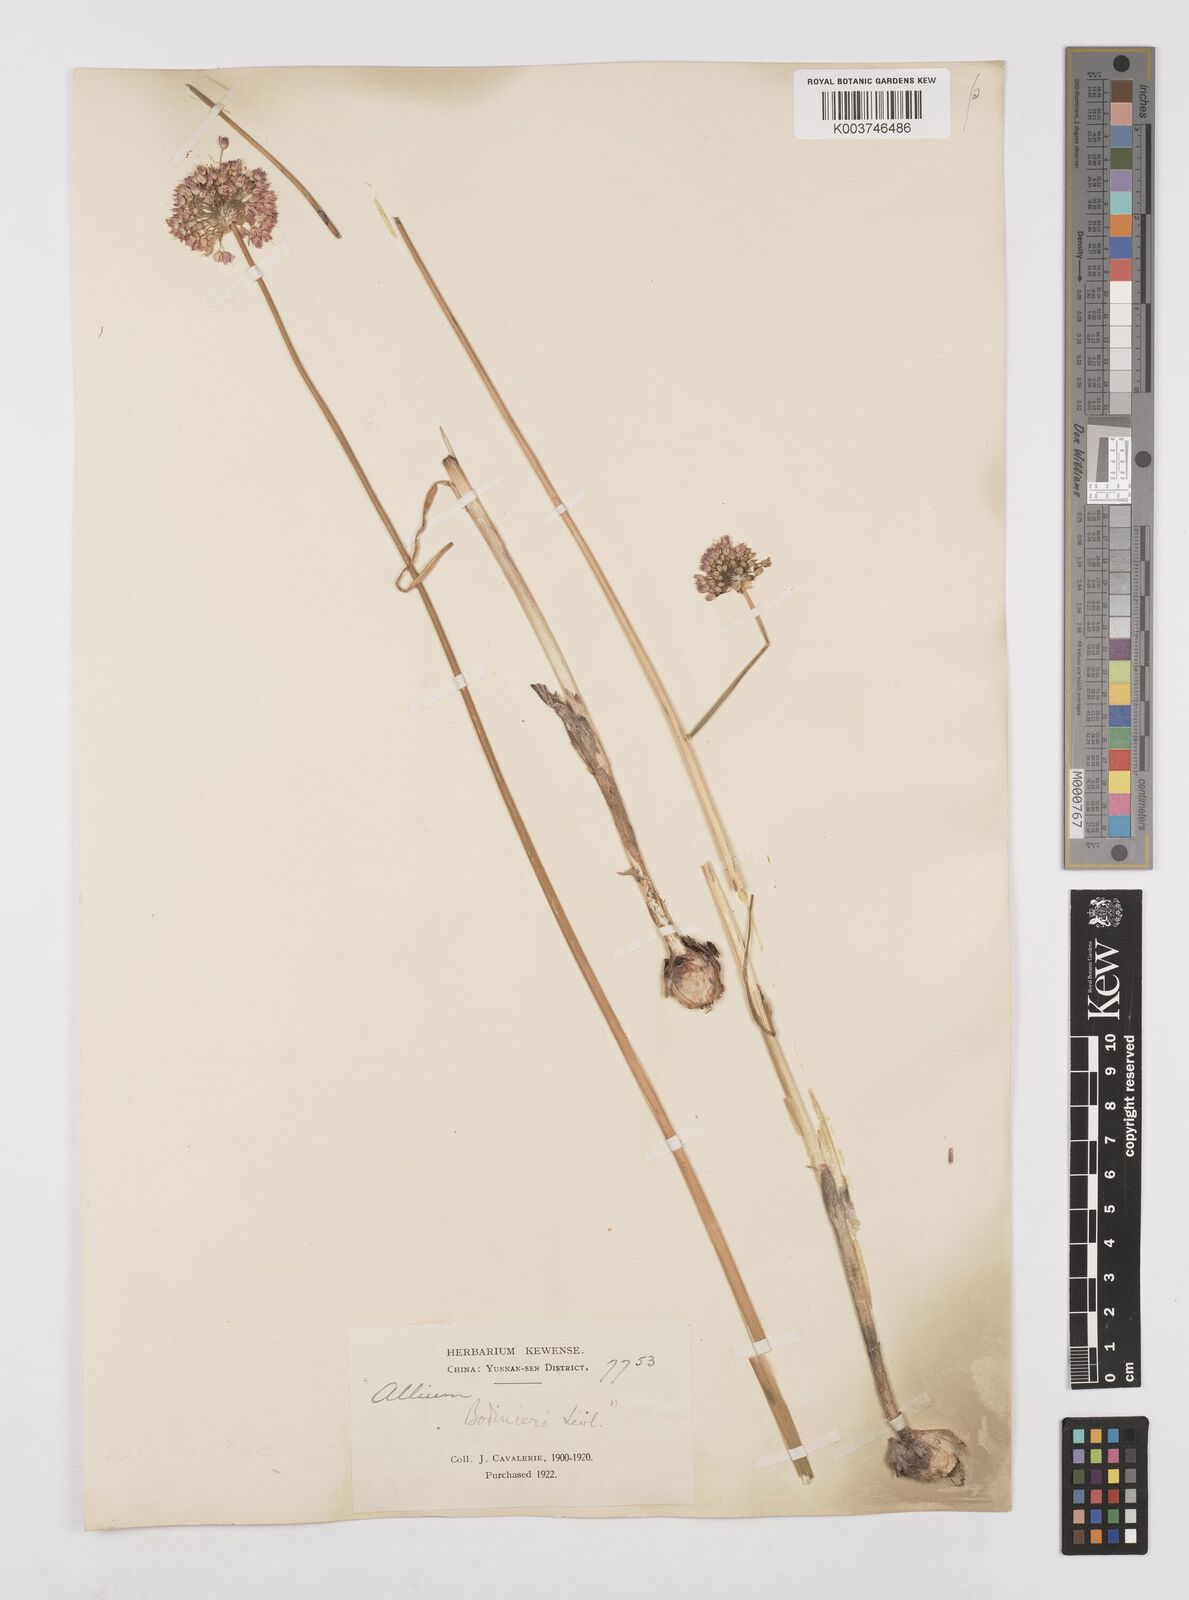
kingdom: Plantae
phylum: Tracheophyta
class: Liliopsida
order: Asparagales
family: Amaryllidaceae
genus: Allium
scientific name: Allium macrostemon
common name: Chinese garlic
